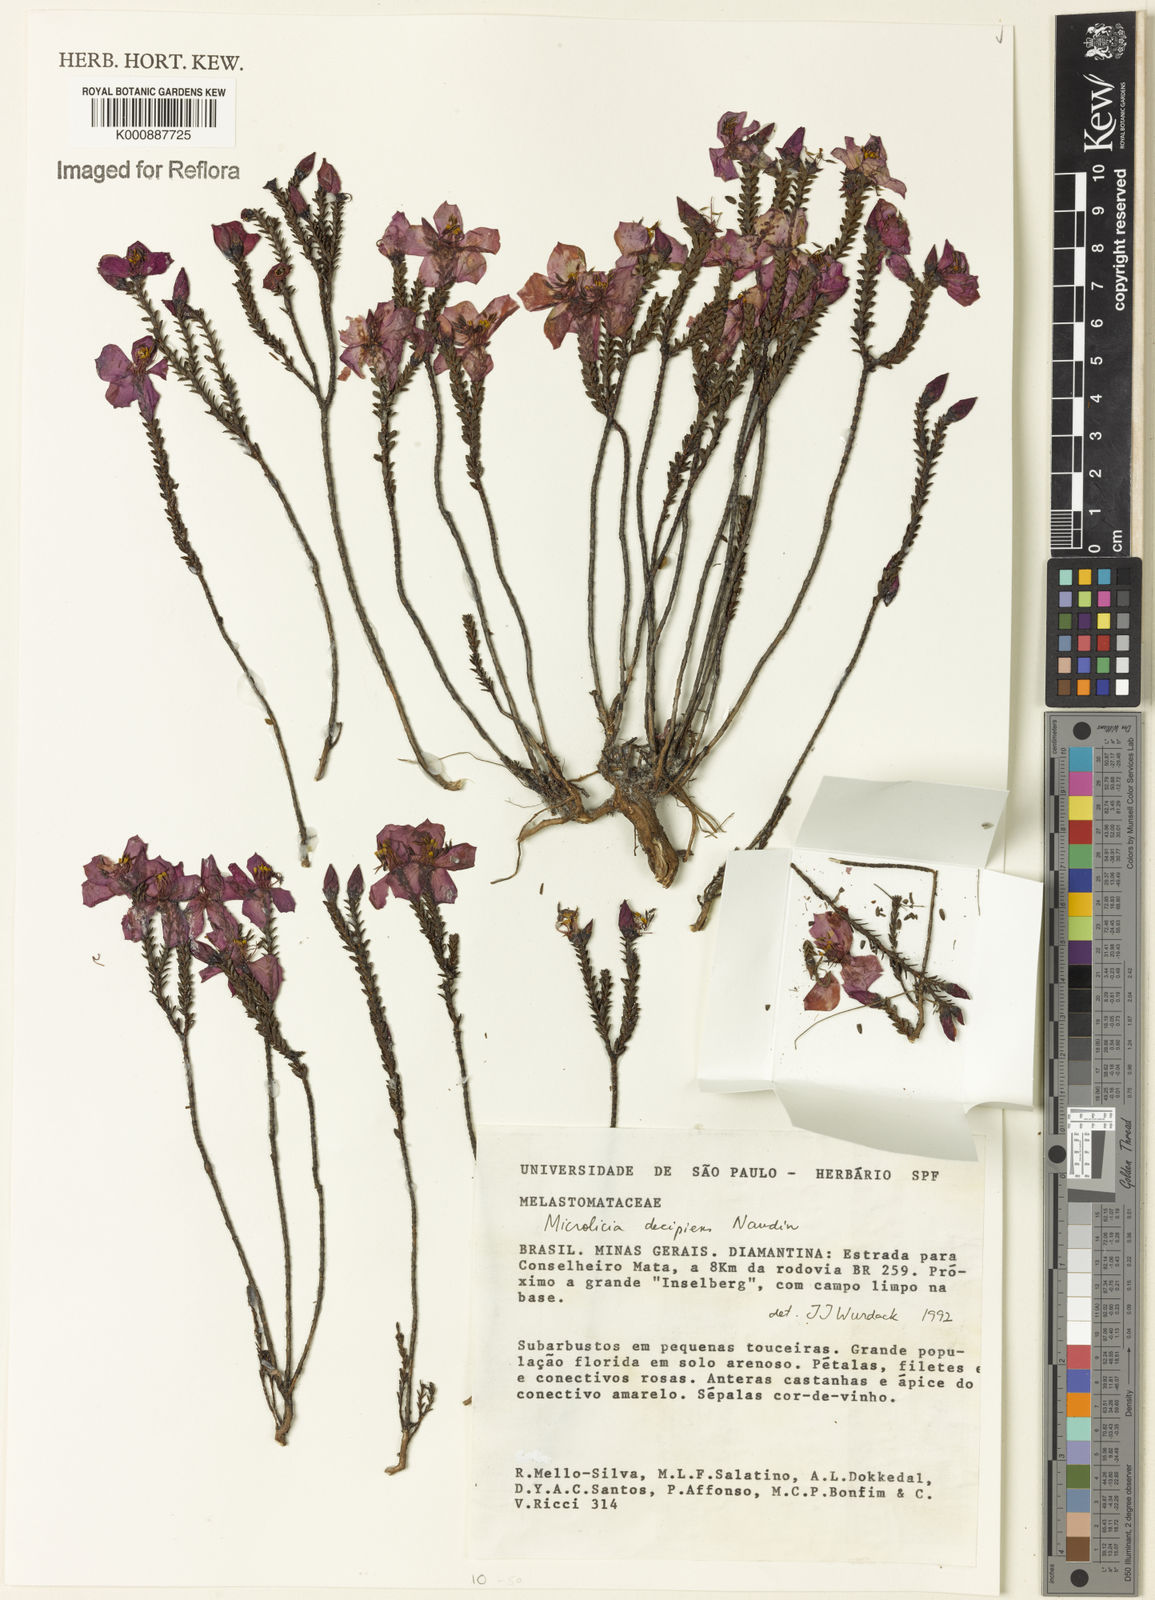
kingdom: Plantae
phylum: Tracheophyta
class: Magnoliopsida
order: Myrtales
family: Melastomataceae
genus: Microlicia
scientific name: Microlicia decipiens
